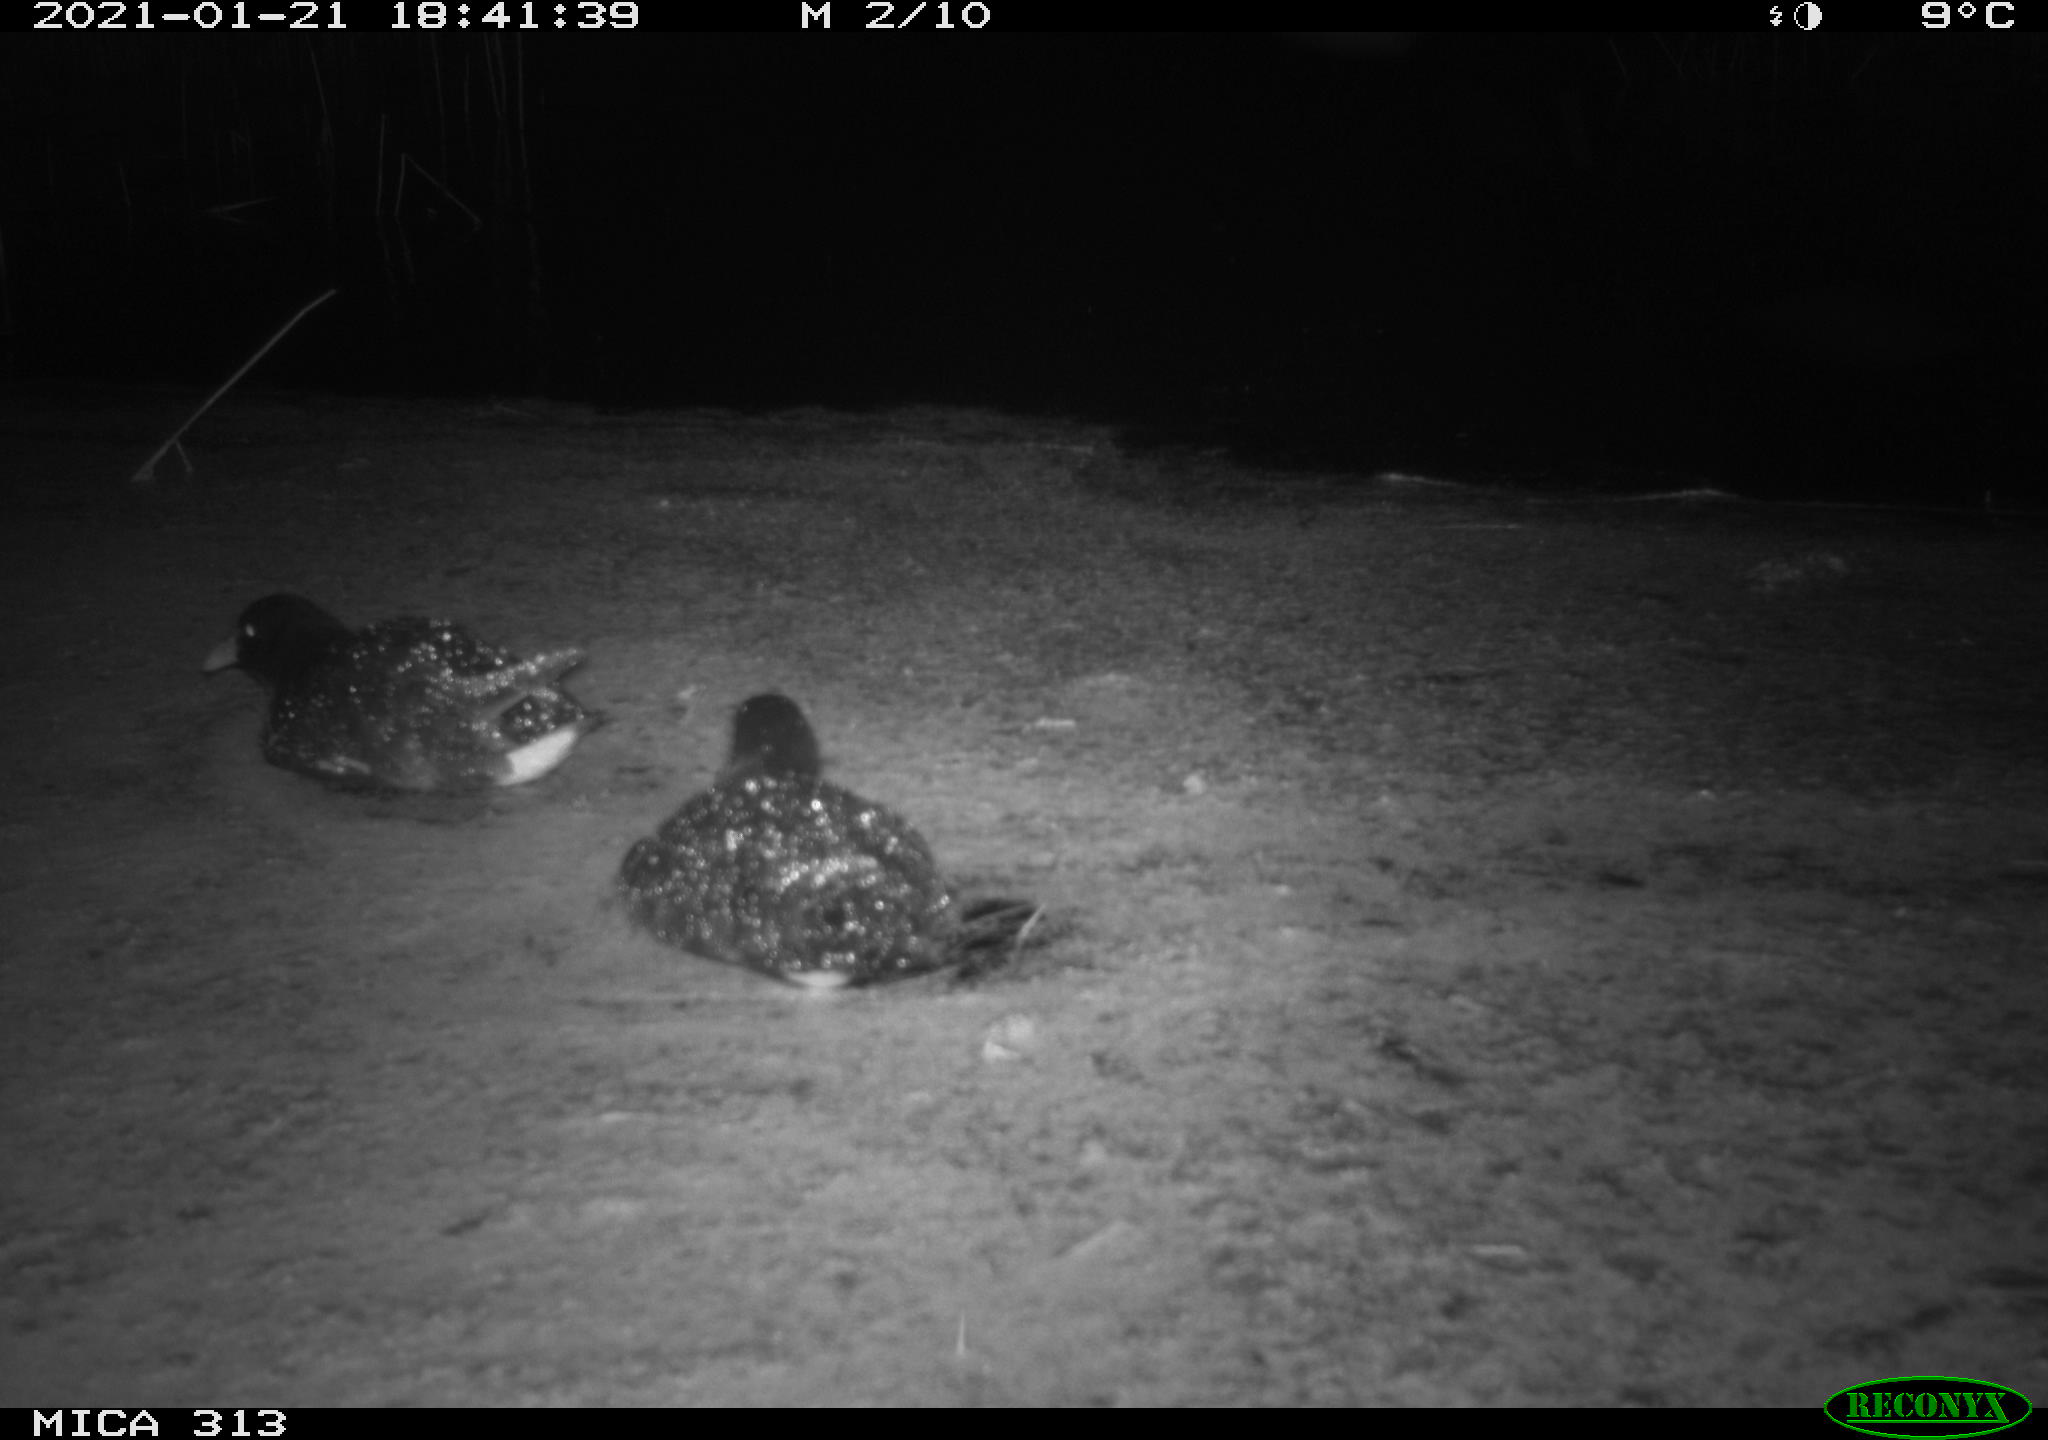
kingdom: Animalia
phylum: Chordata
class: Aves
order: Anseriformes
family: Anatidae
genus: Anas
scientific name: Anas platyrhynchos
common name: Mallard
